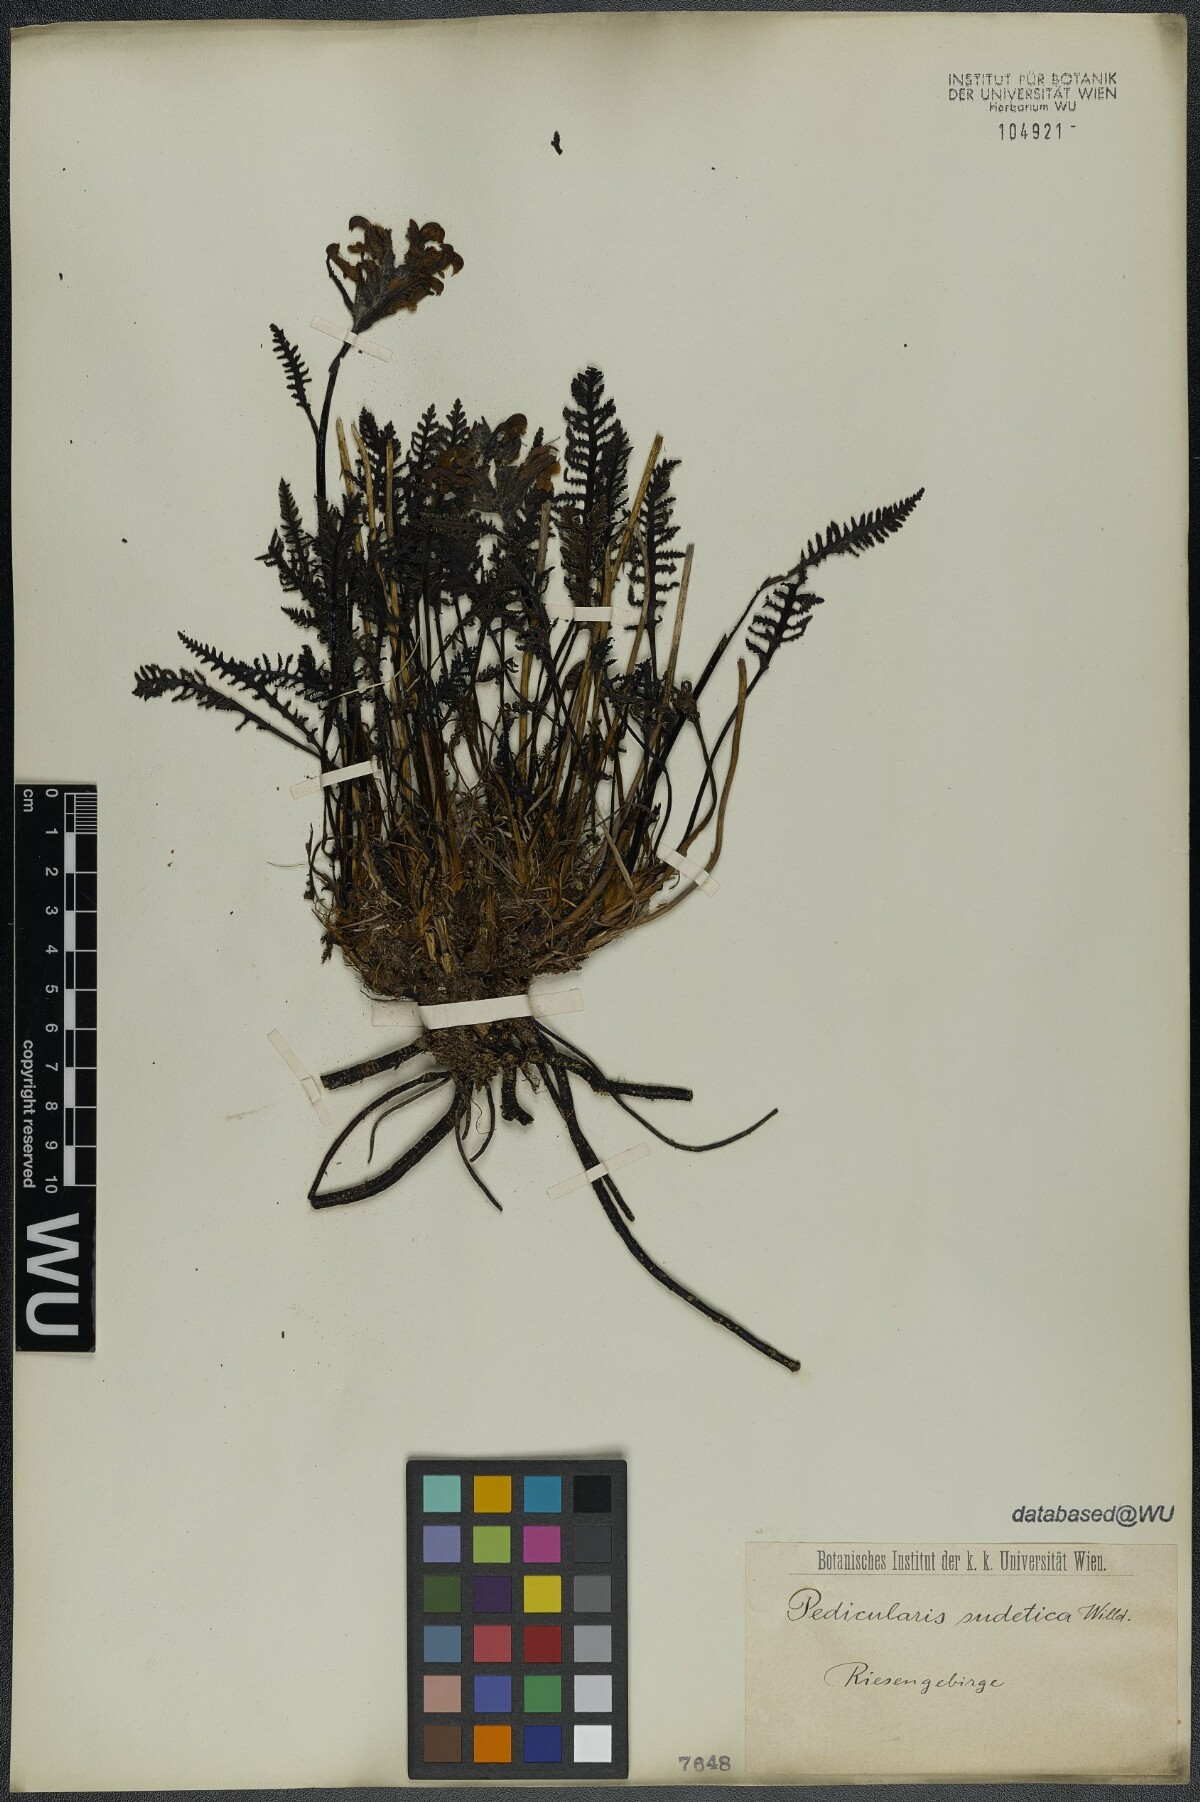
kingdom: Plantae
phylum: Tracheophyta
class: Magnoliopsida
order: Lamiales
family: Orobanchaceae
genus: Pedicularis
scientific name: Pedicularis sudetica
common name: Sudeten lousewort
